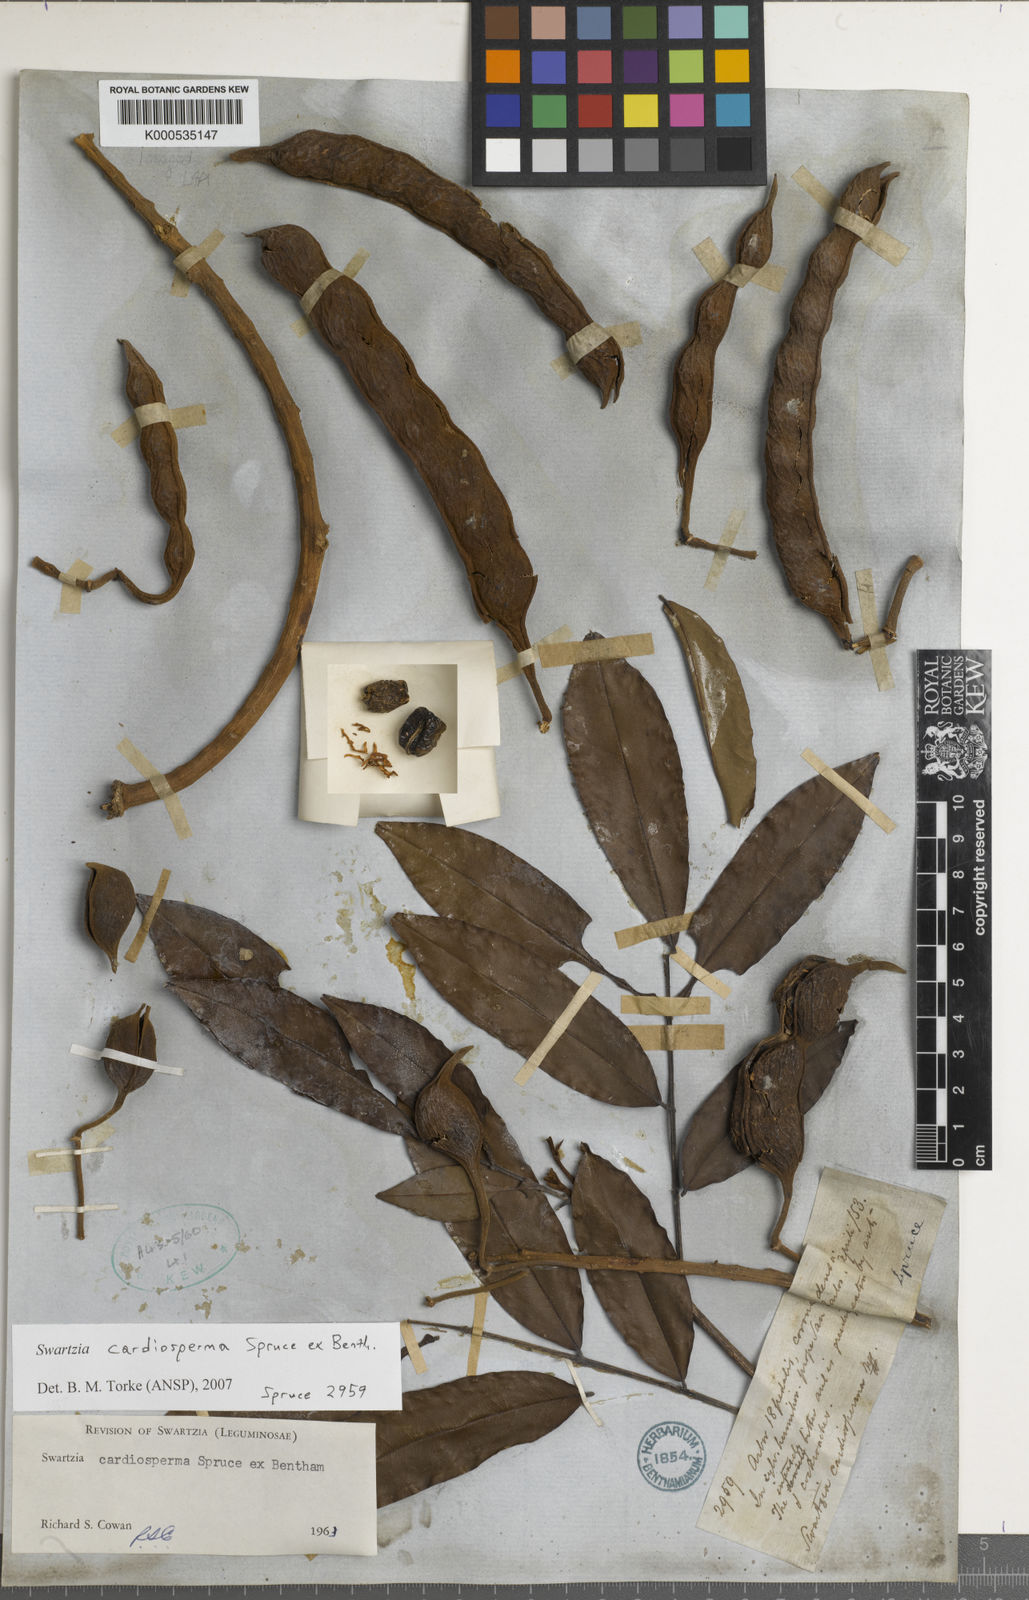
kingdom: Plantae
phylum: Tracheophyta
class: Magnoliopsida
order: Fabales
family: Fabaceae
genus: Swartzia
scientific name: Swartzia cardiosperma
